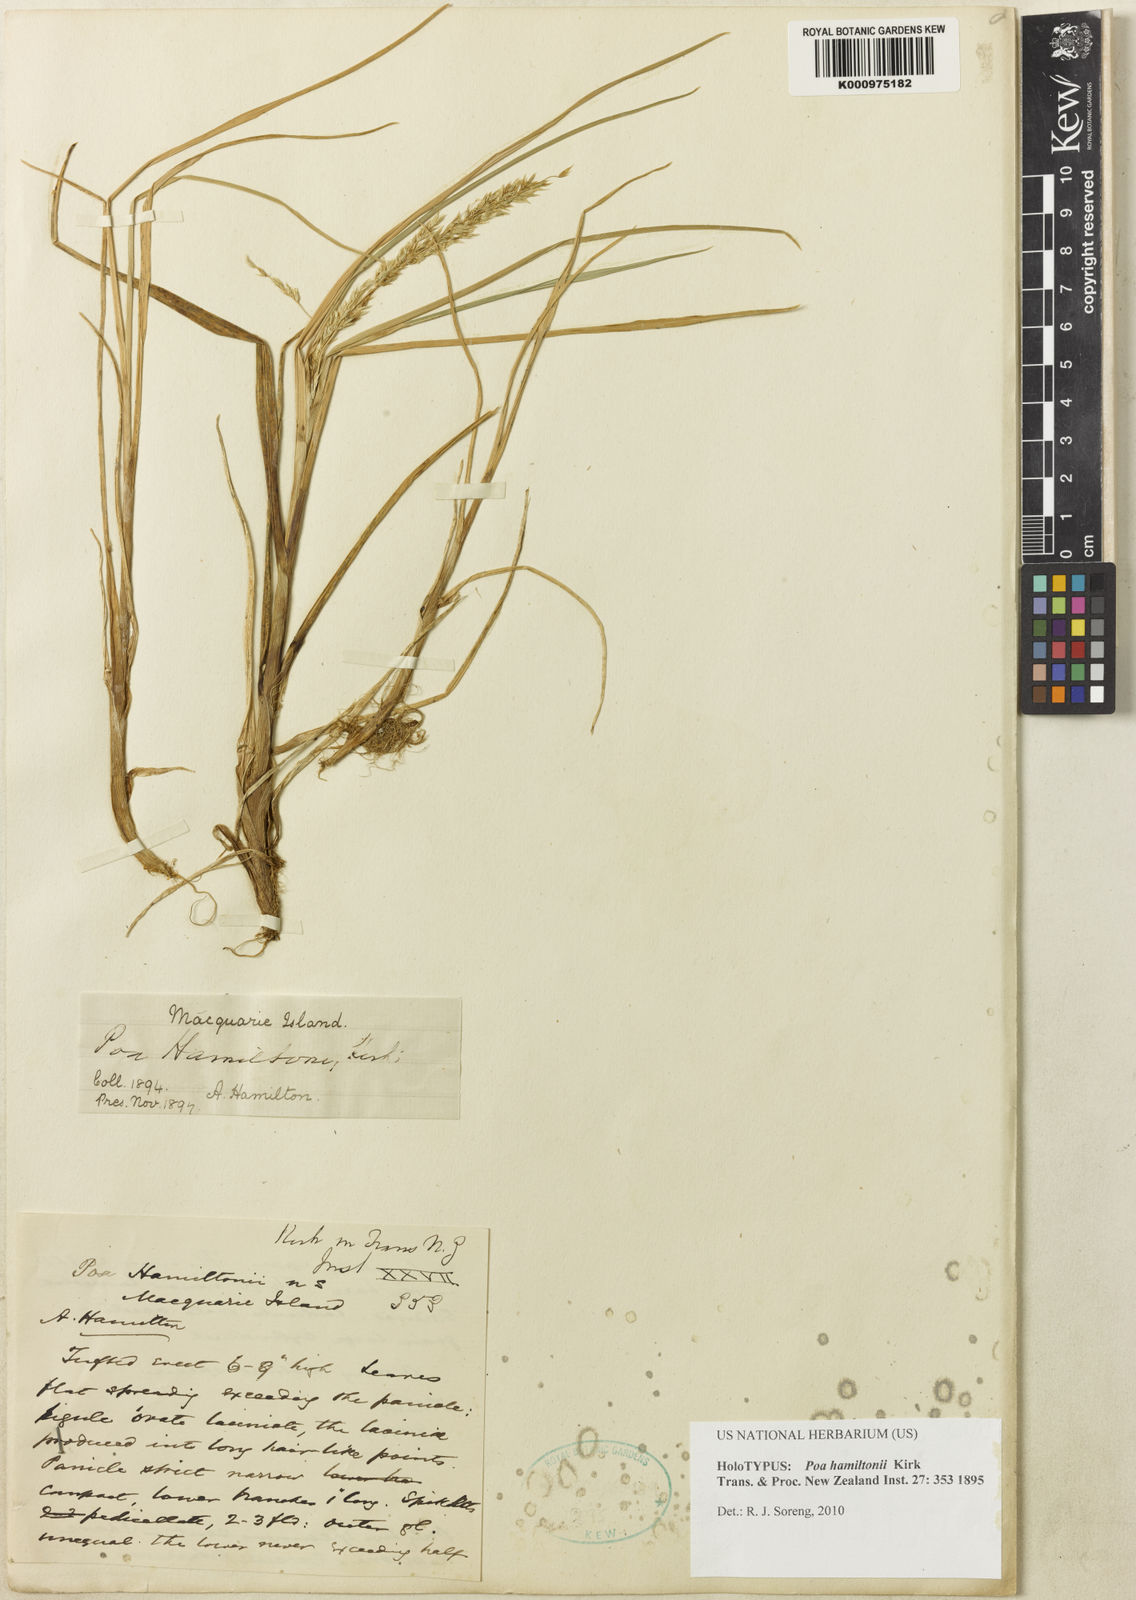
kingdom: Plantae
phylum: Tracheophyta
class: Liliopsida
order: Poales
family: Poaceae
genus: Poa
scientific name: Poa cookii
